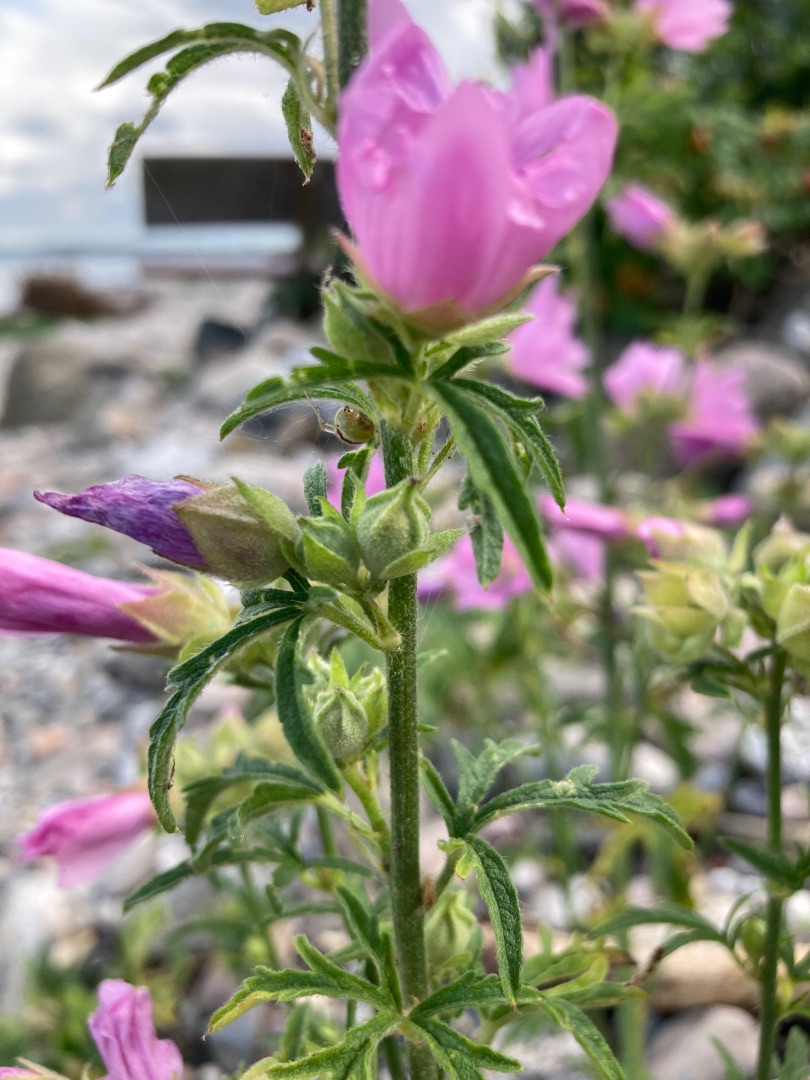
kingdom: Plantae
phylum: Tracheophyta
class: Magnoliopsida
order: Malvales
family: Malvaceae
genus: Malva
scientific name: Malva alcea
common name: Rosen-katost
